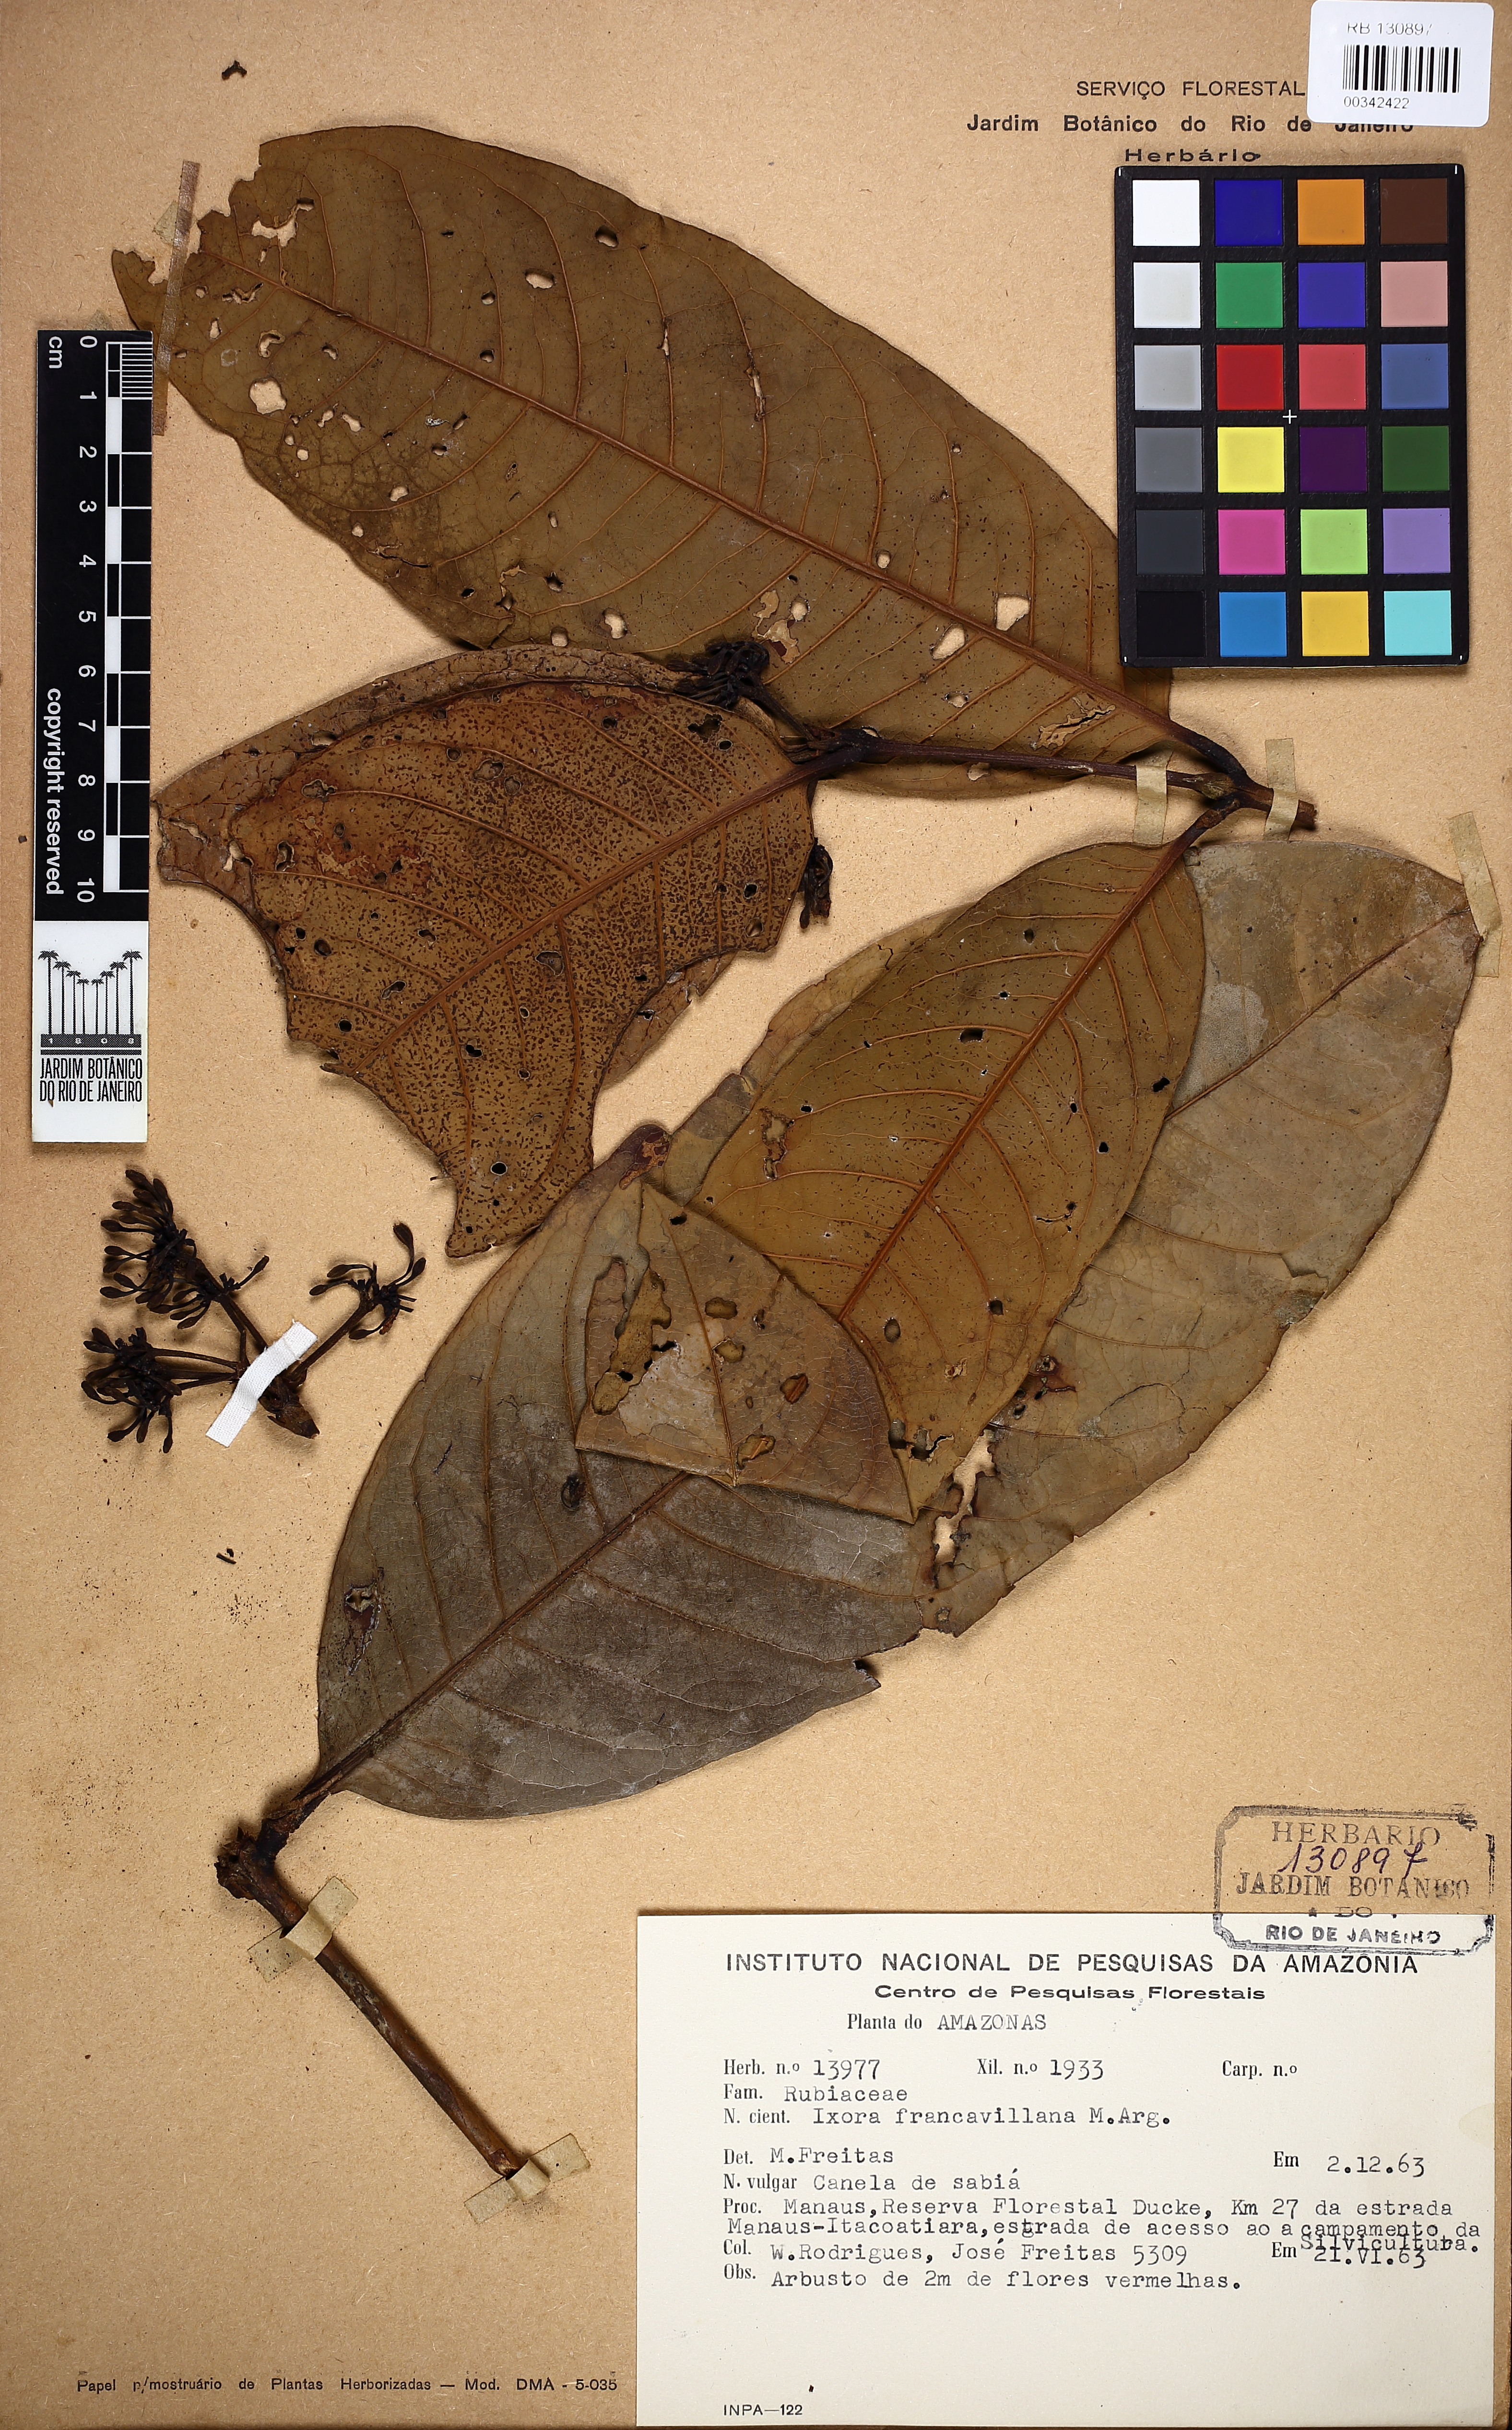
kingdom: Plantae
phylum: Tracheophyta
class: Magnoliopsida
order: Gentianales
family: Rubiaceae
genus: Ixora
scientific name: Ixora francavillana
